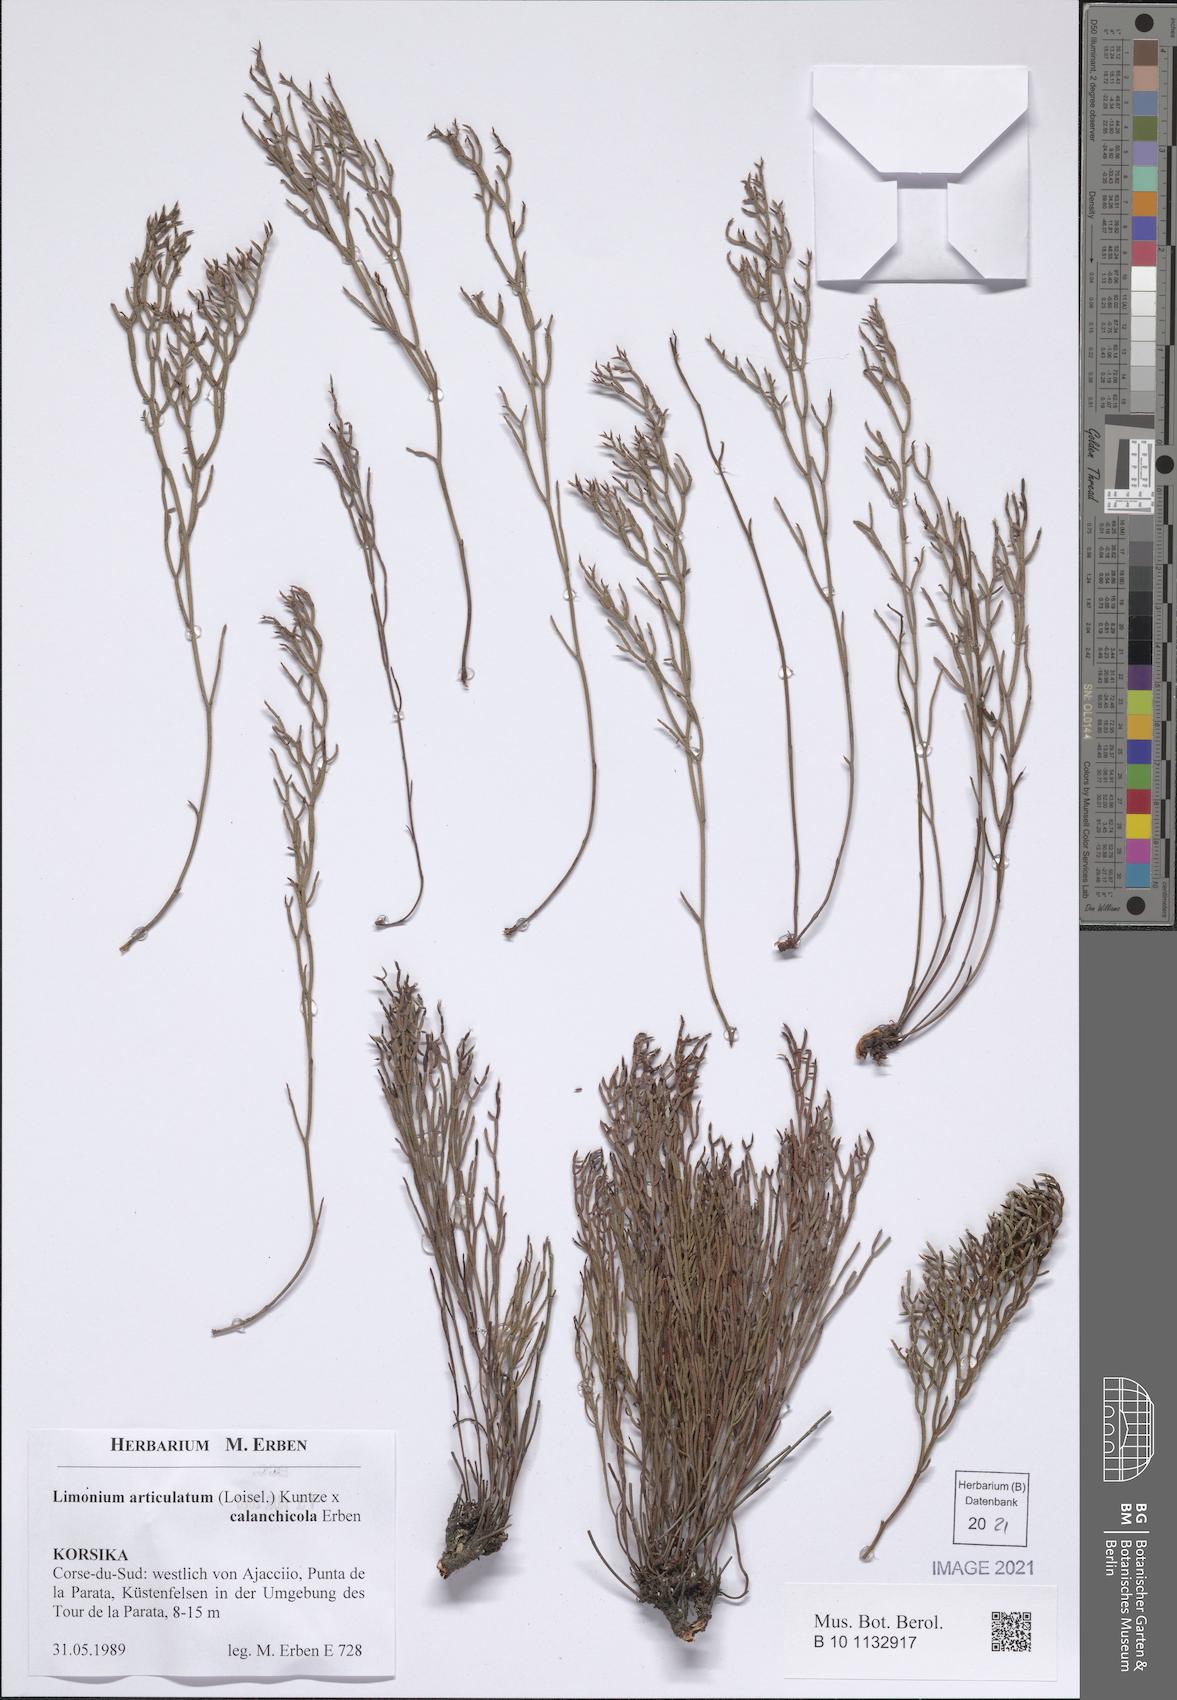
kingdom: Plantae
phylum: Tracheophyta
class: Magnoliopsida
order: Caryophyllales
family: Plumbaginaceae
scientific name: Plumbaginaceae
